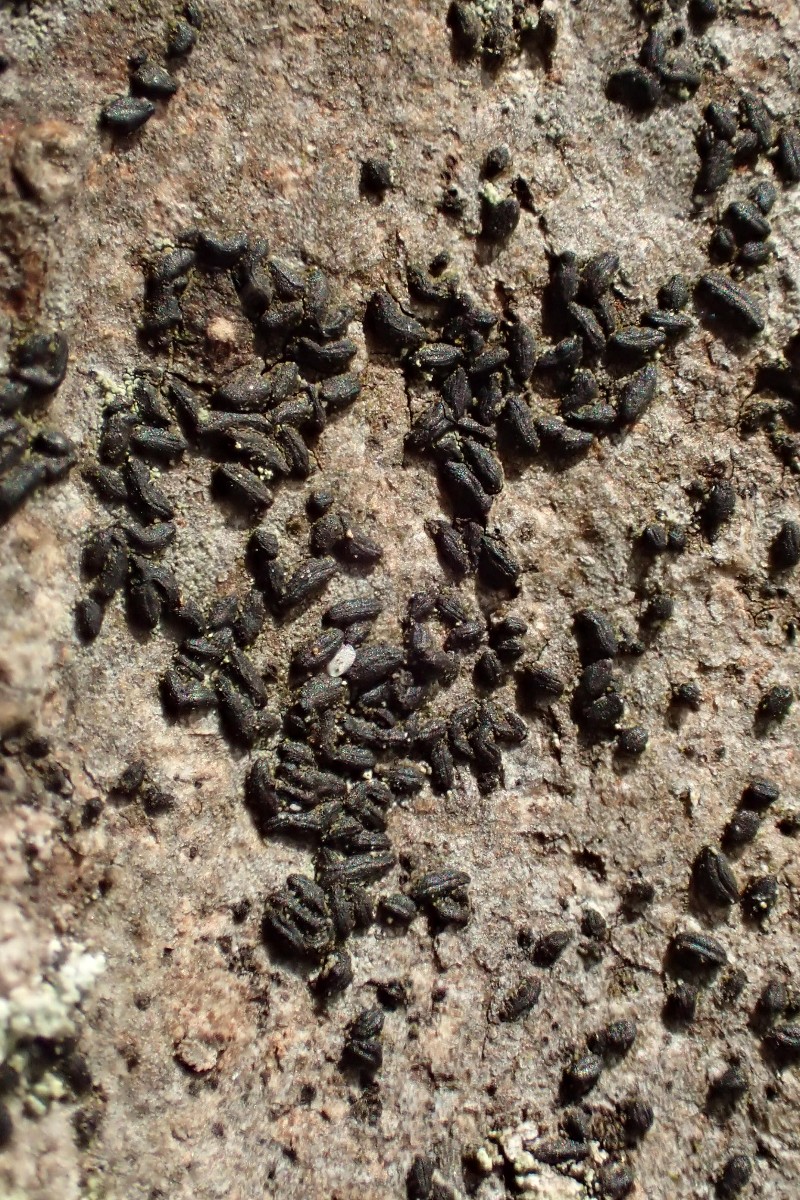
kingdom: Fungi
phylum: Ascomycota
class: Dothideomycetes
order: Hysteriales
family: Hysteriaceae
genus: Hysterium
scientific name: Hysterium acuminatum
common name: almindelig kulmund
